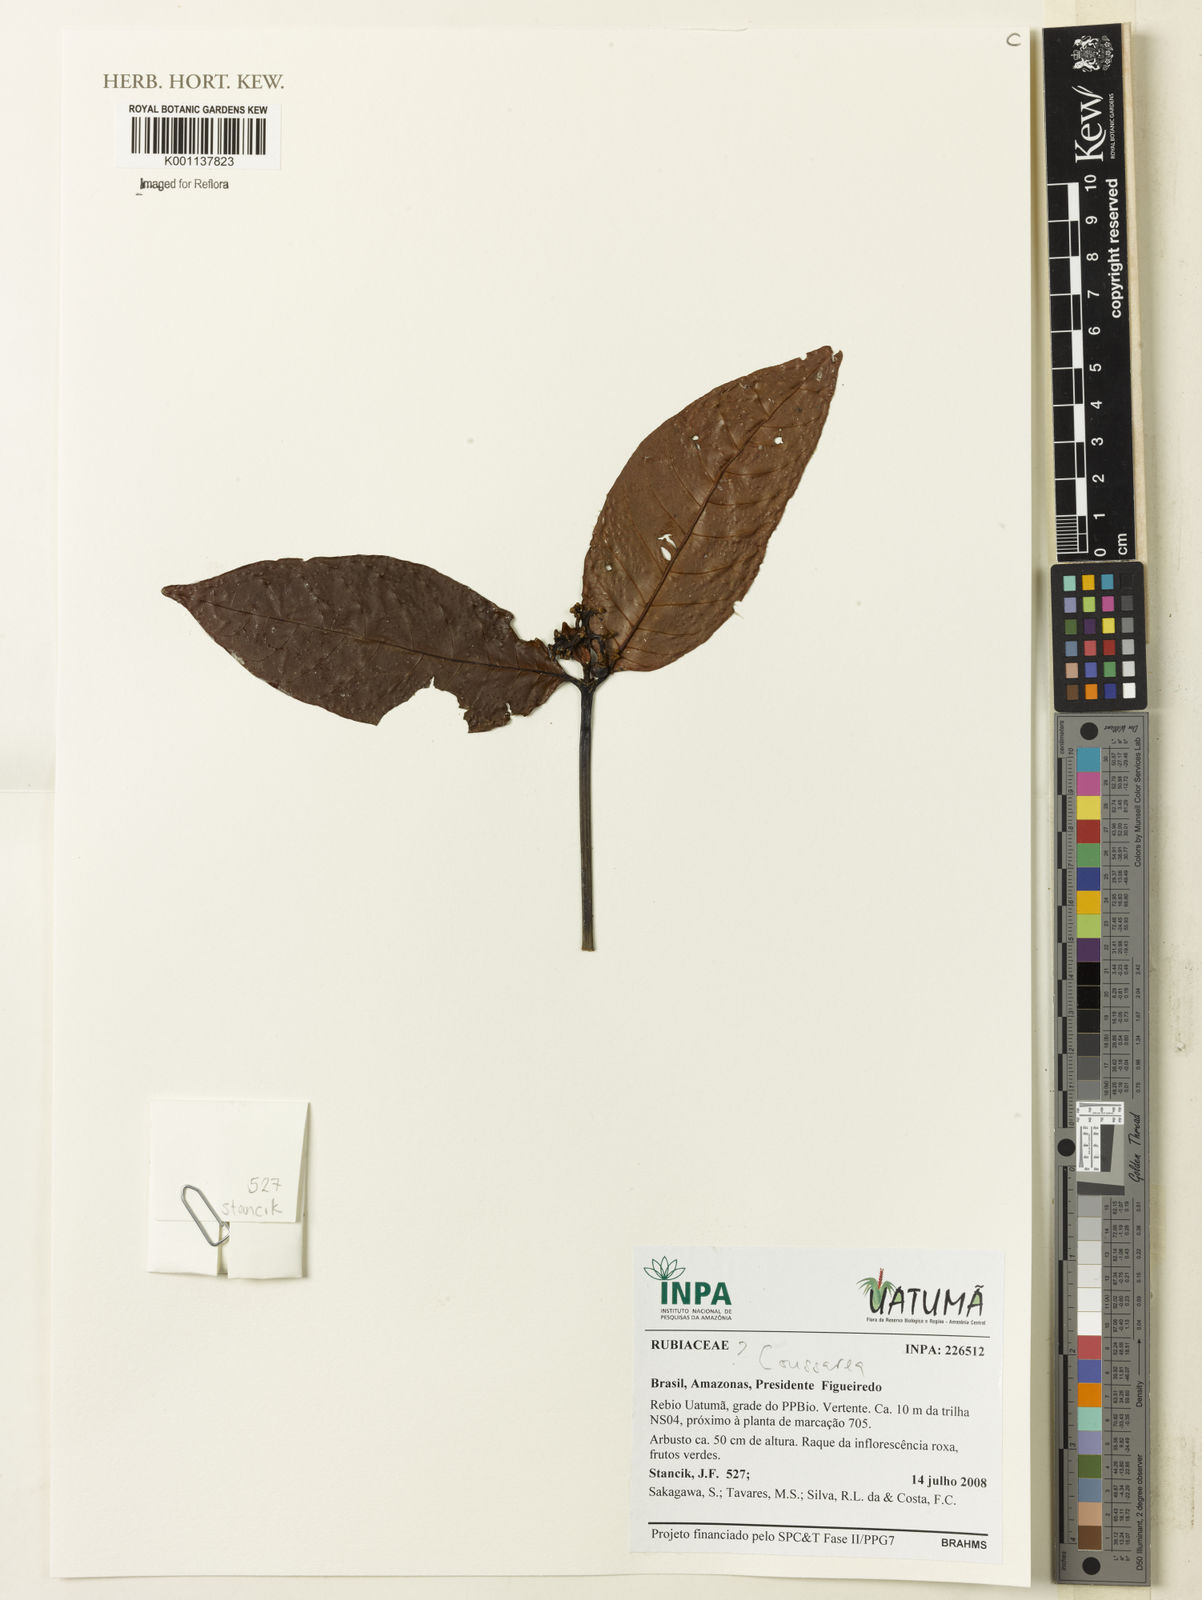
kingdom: Plantae
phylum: Tracheophyta
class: Magnoliopsida
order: Gentianales
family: Rubiaceae
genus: Coussarea
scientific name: Coussarea
